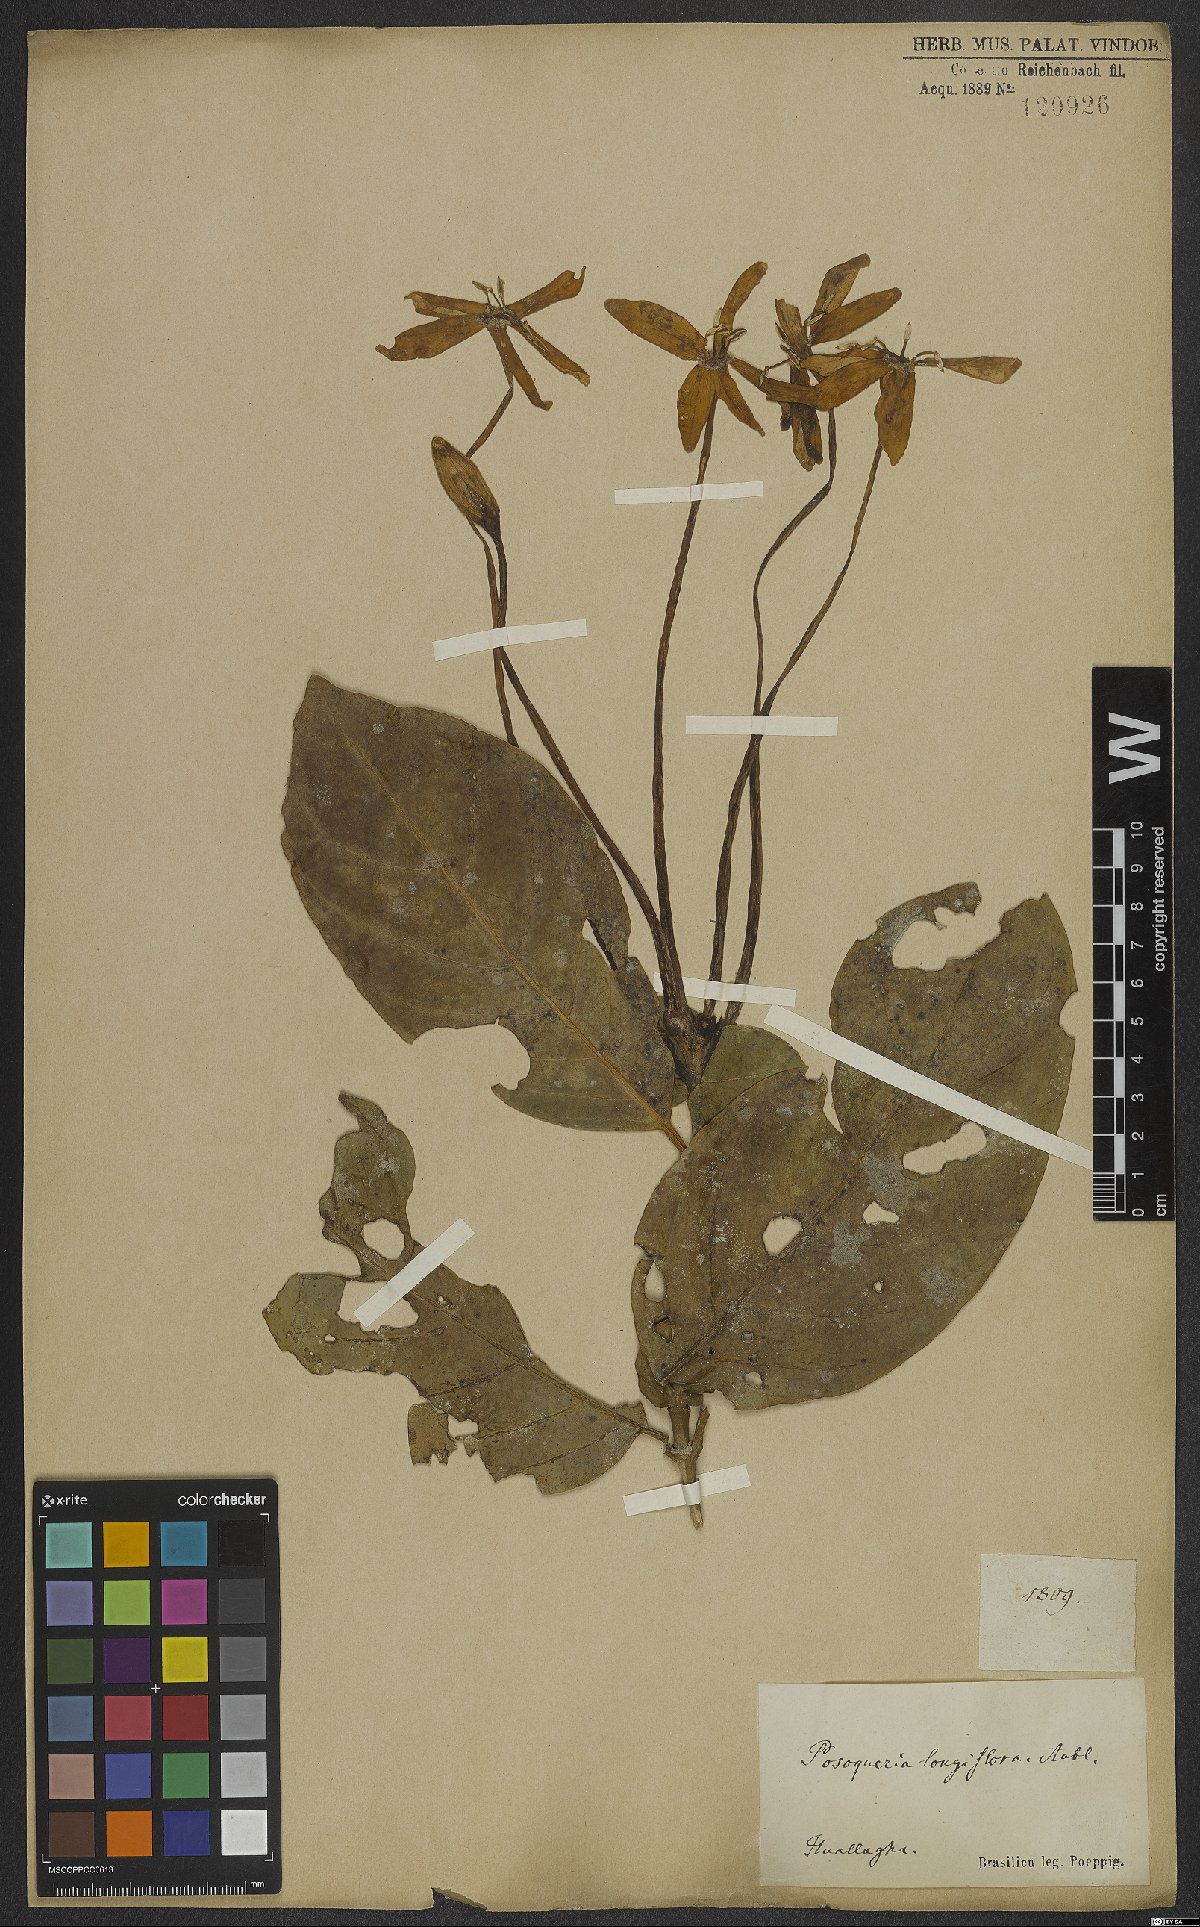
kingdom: Plantae
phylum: Tracheophyta
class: Magnoliopsida
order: Gentianales
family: Rubiaceae
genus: Posoqueria
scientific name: Posoqueria longiflora
